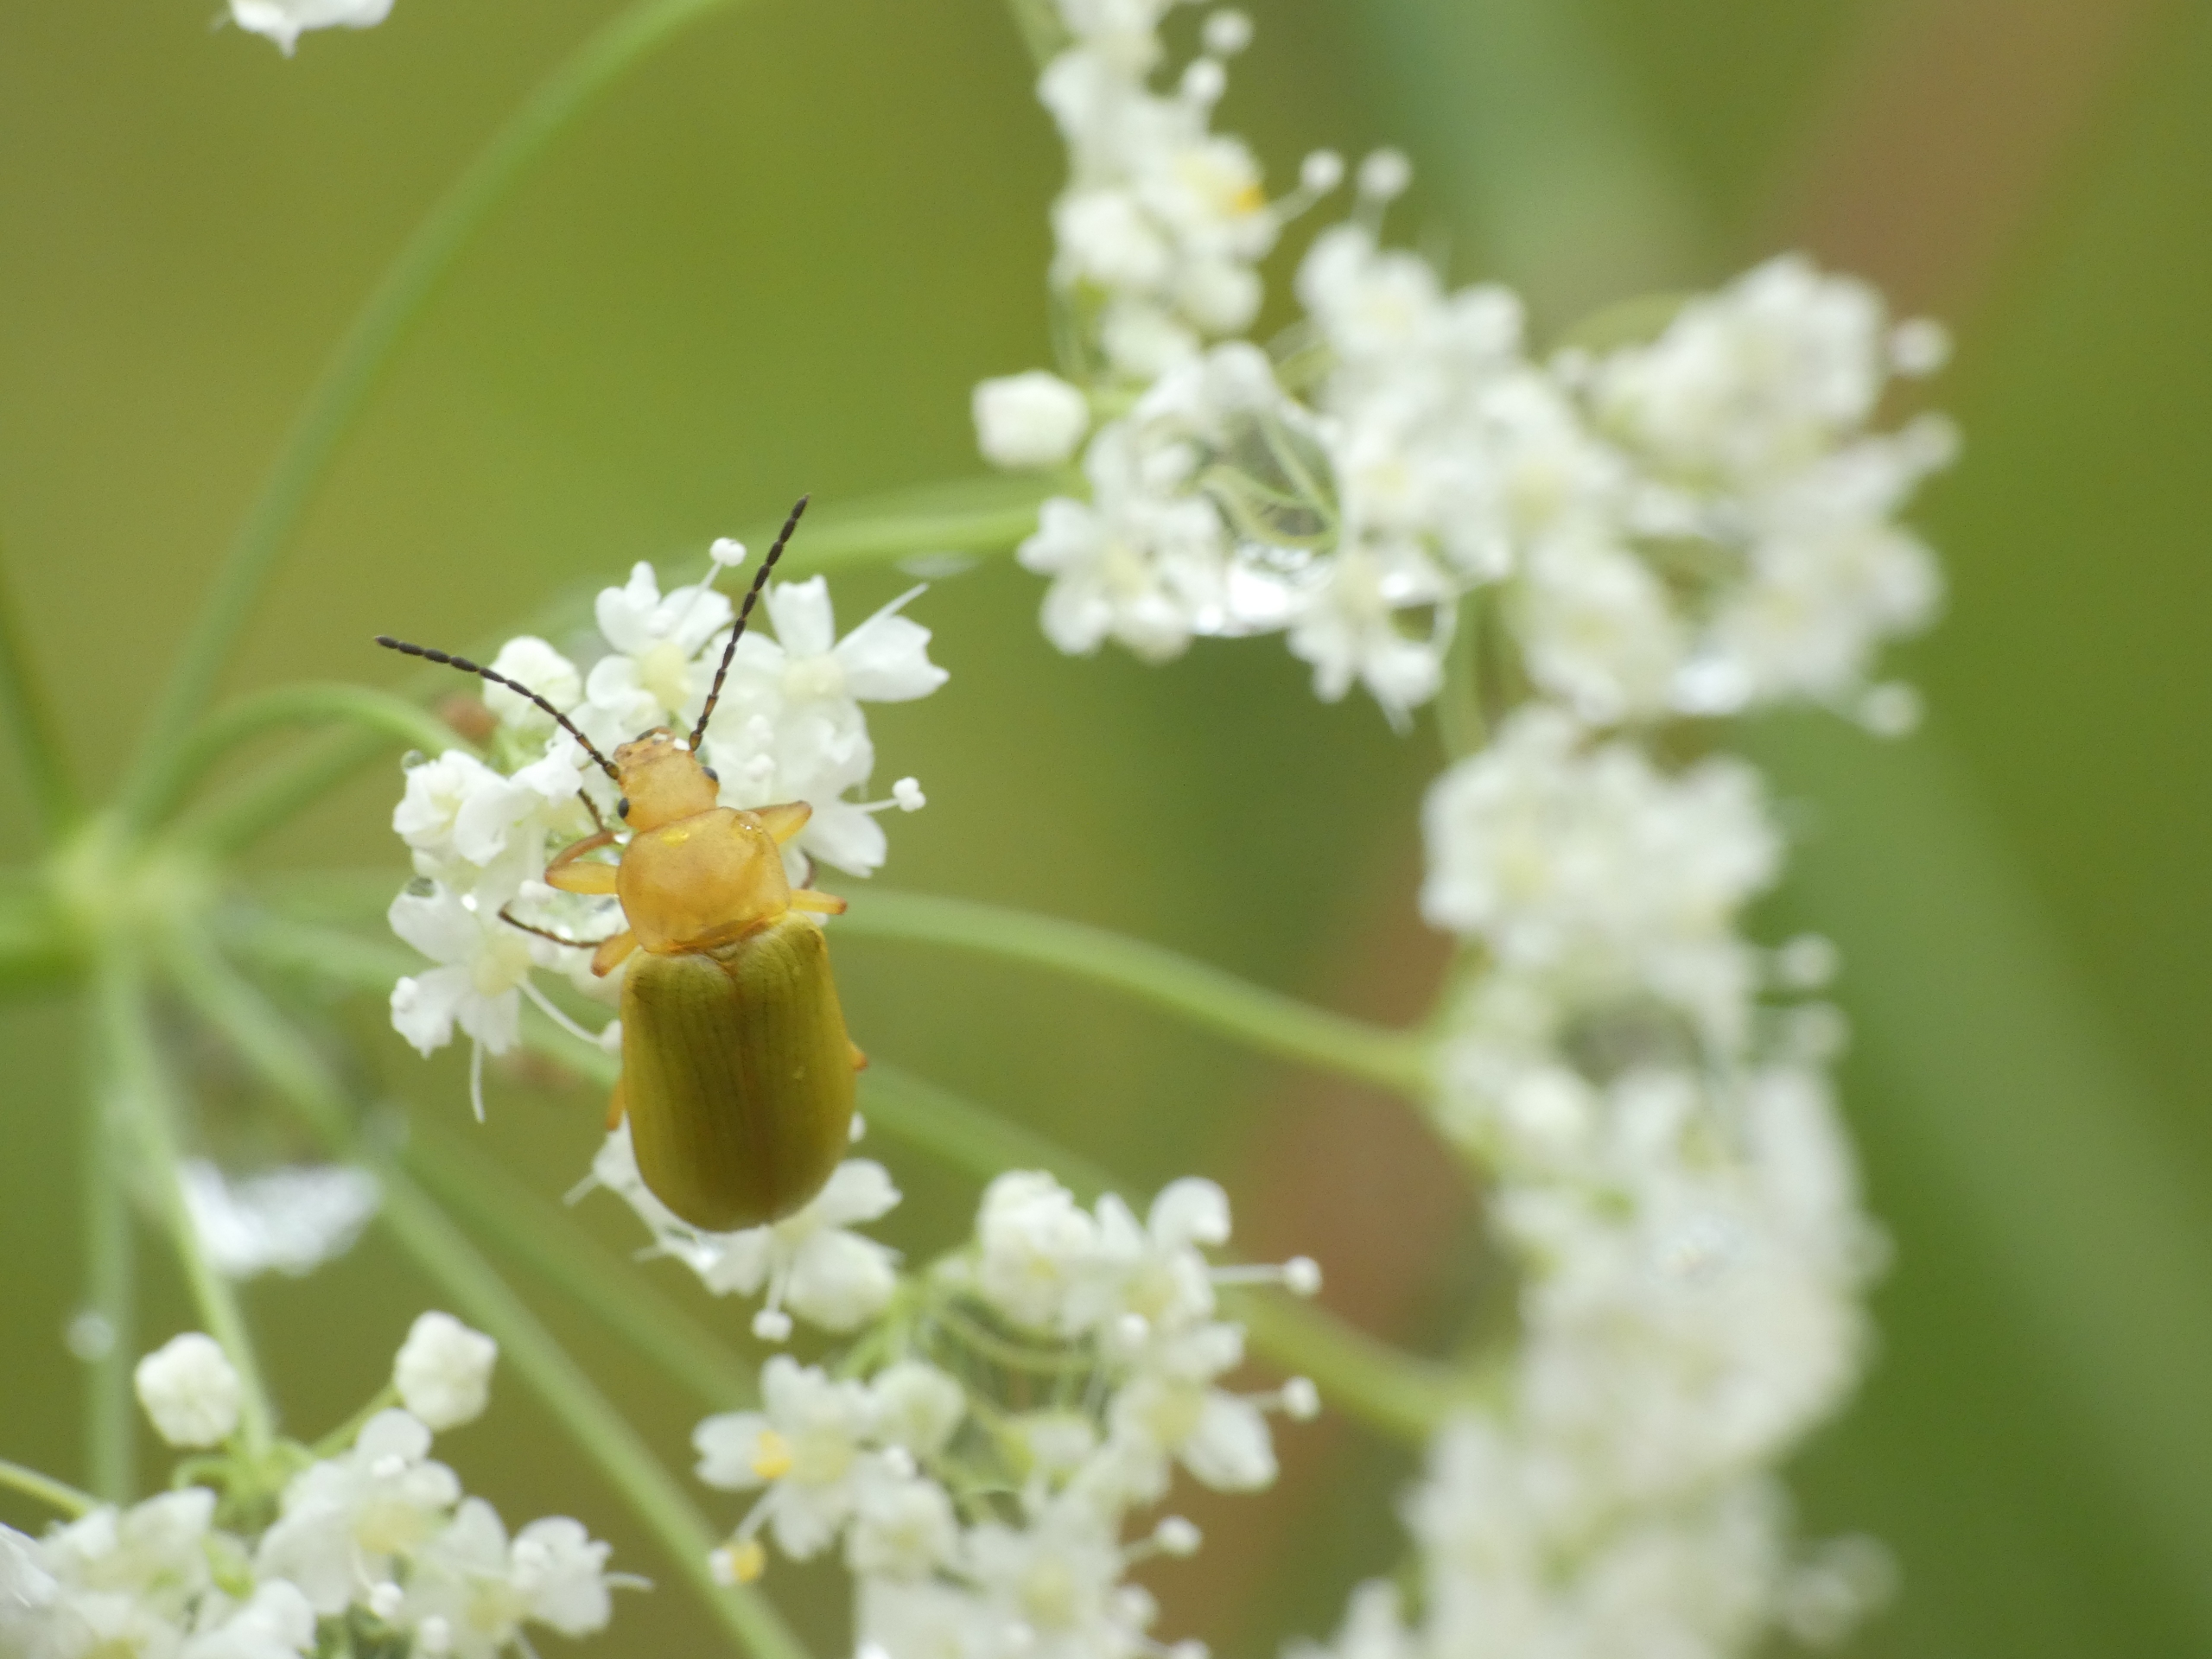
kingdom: Animalia
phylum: Arthropoda
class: Insecta
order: Coleoptera
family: Tenebrionidae
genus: Cteniopus
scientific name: Cteniopus sulphureus
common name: Svovlgul skyggebille
